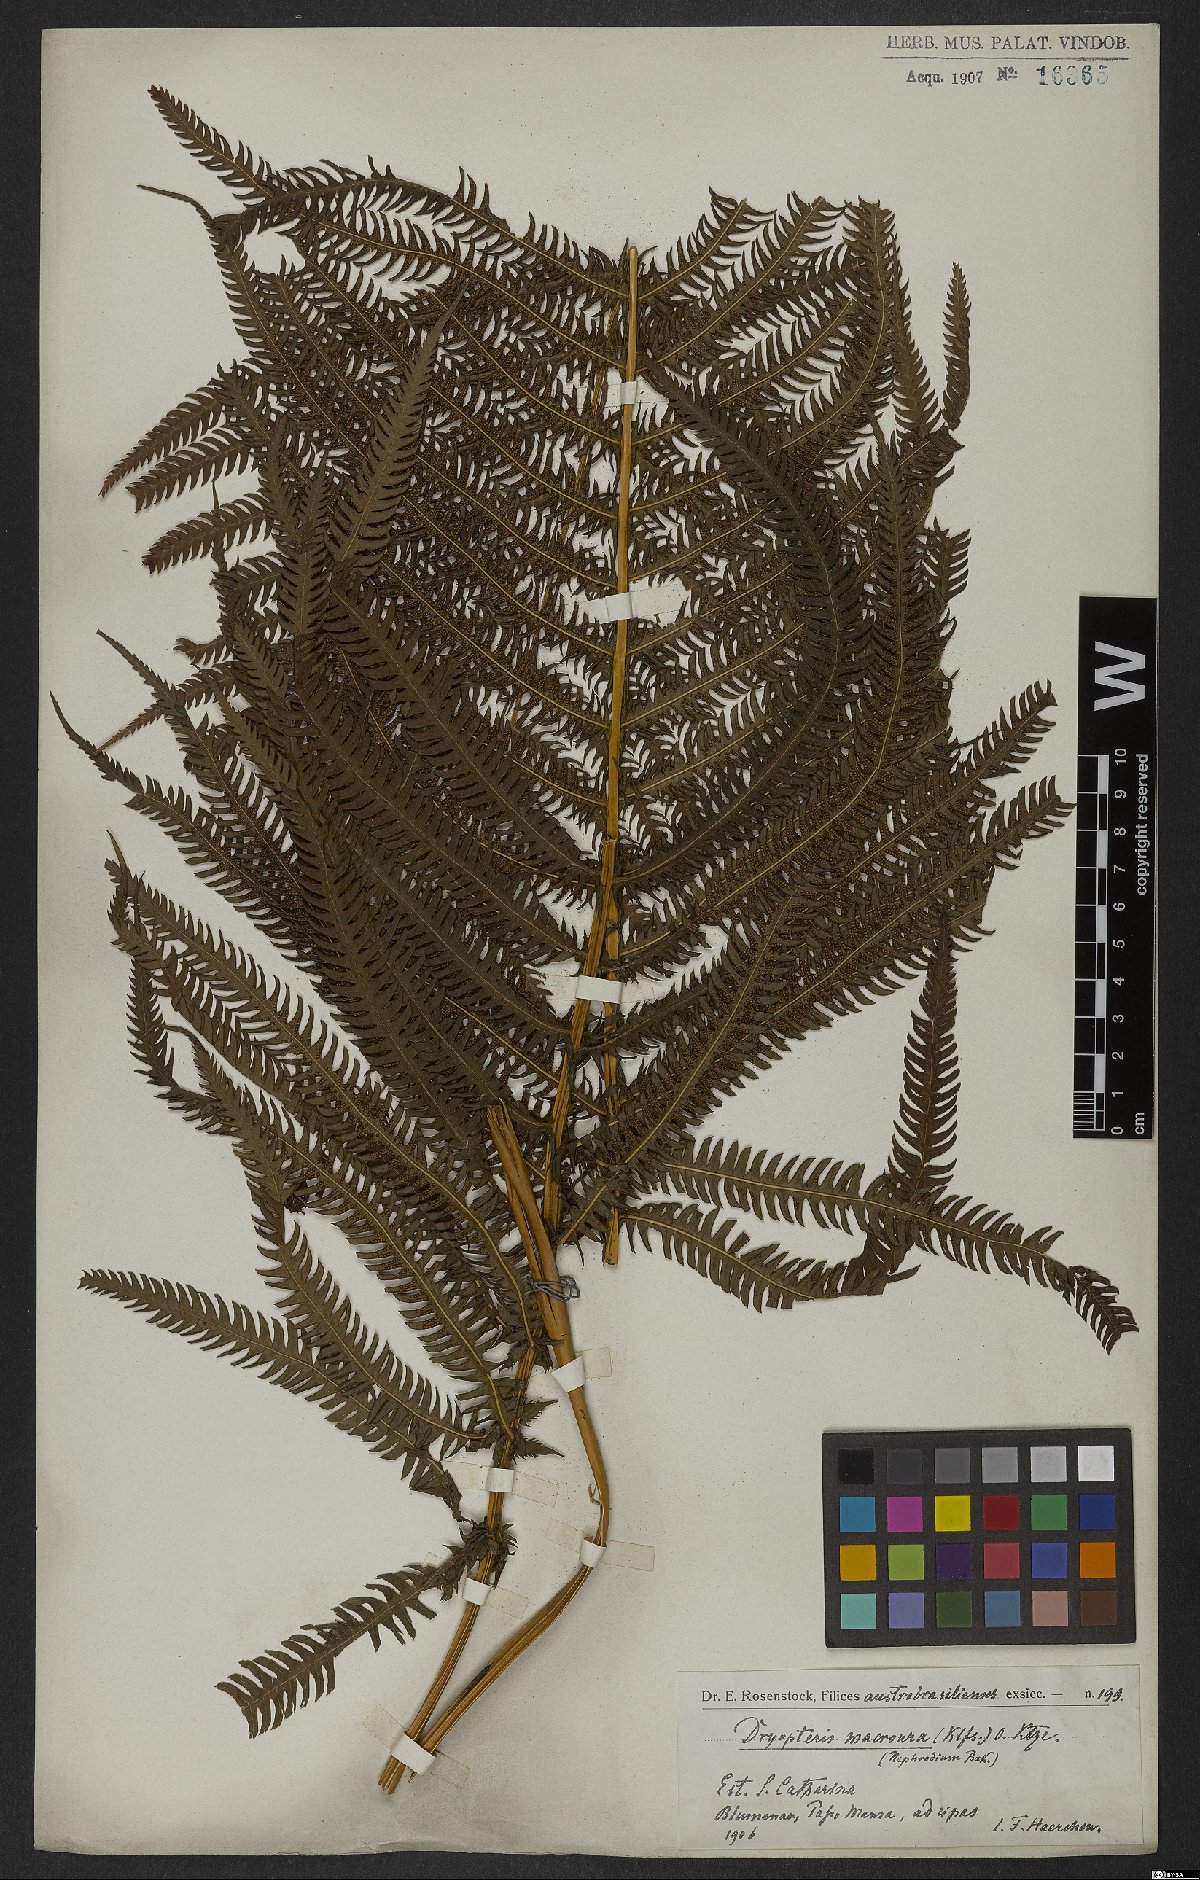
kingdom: Plantae
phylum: Tracheophyta
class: Polypodiopsida
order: Polypodiales
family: Thelypteridaceae
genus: Pelazoneuron
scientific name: Pelazoneuron patens
